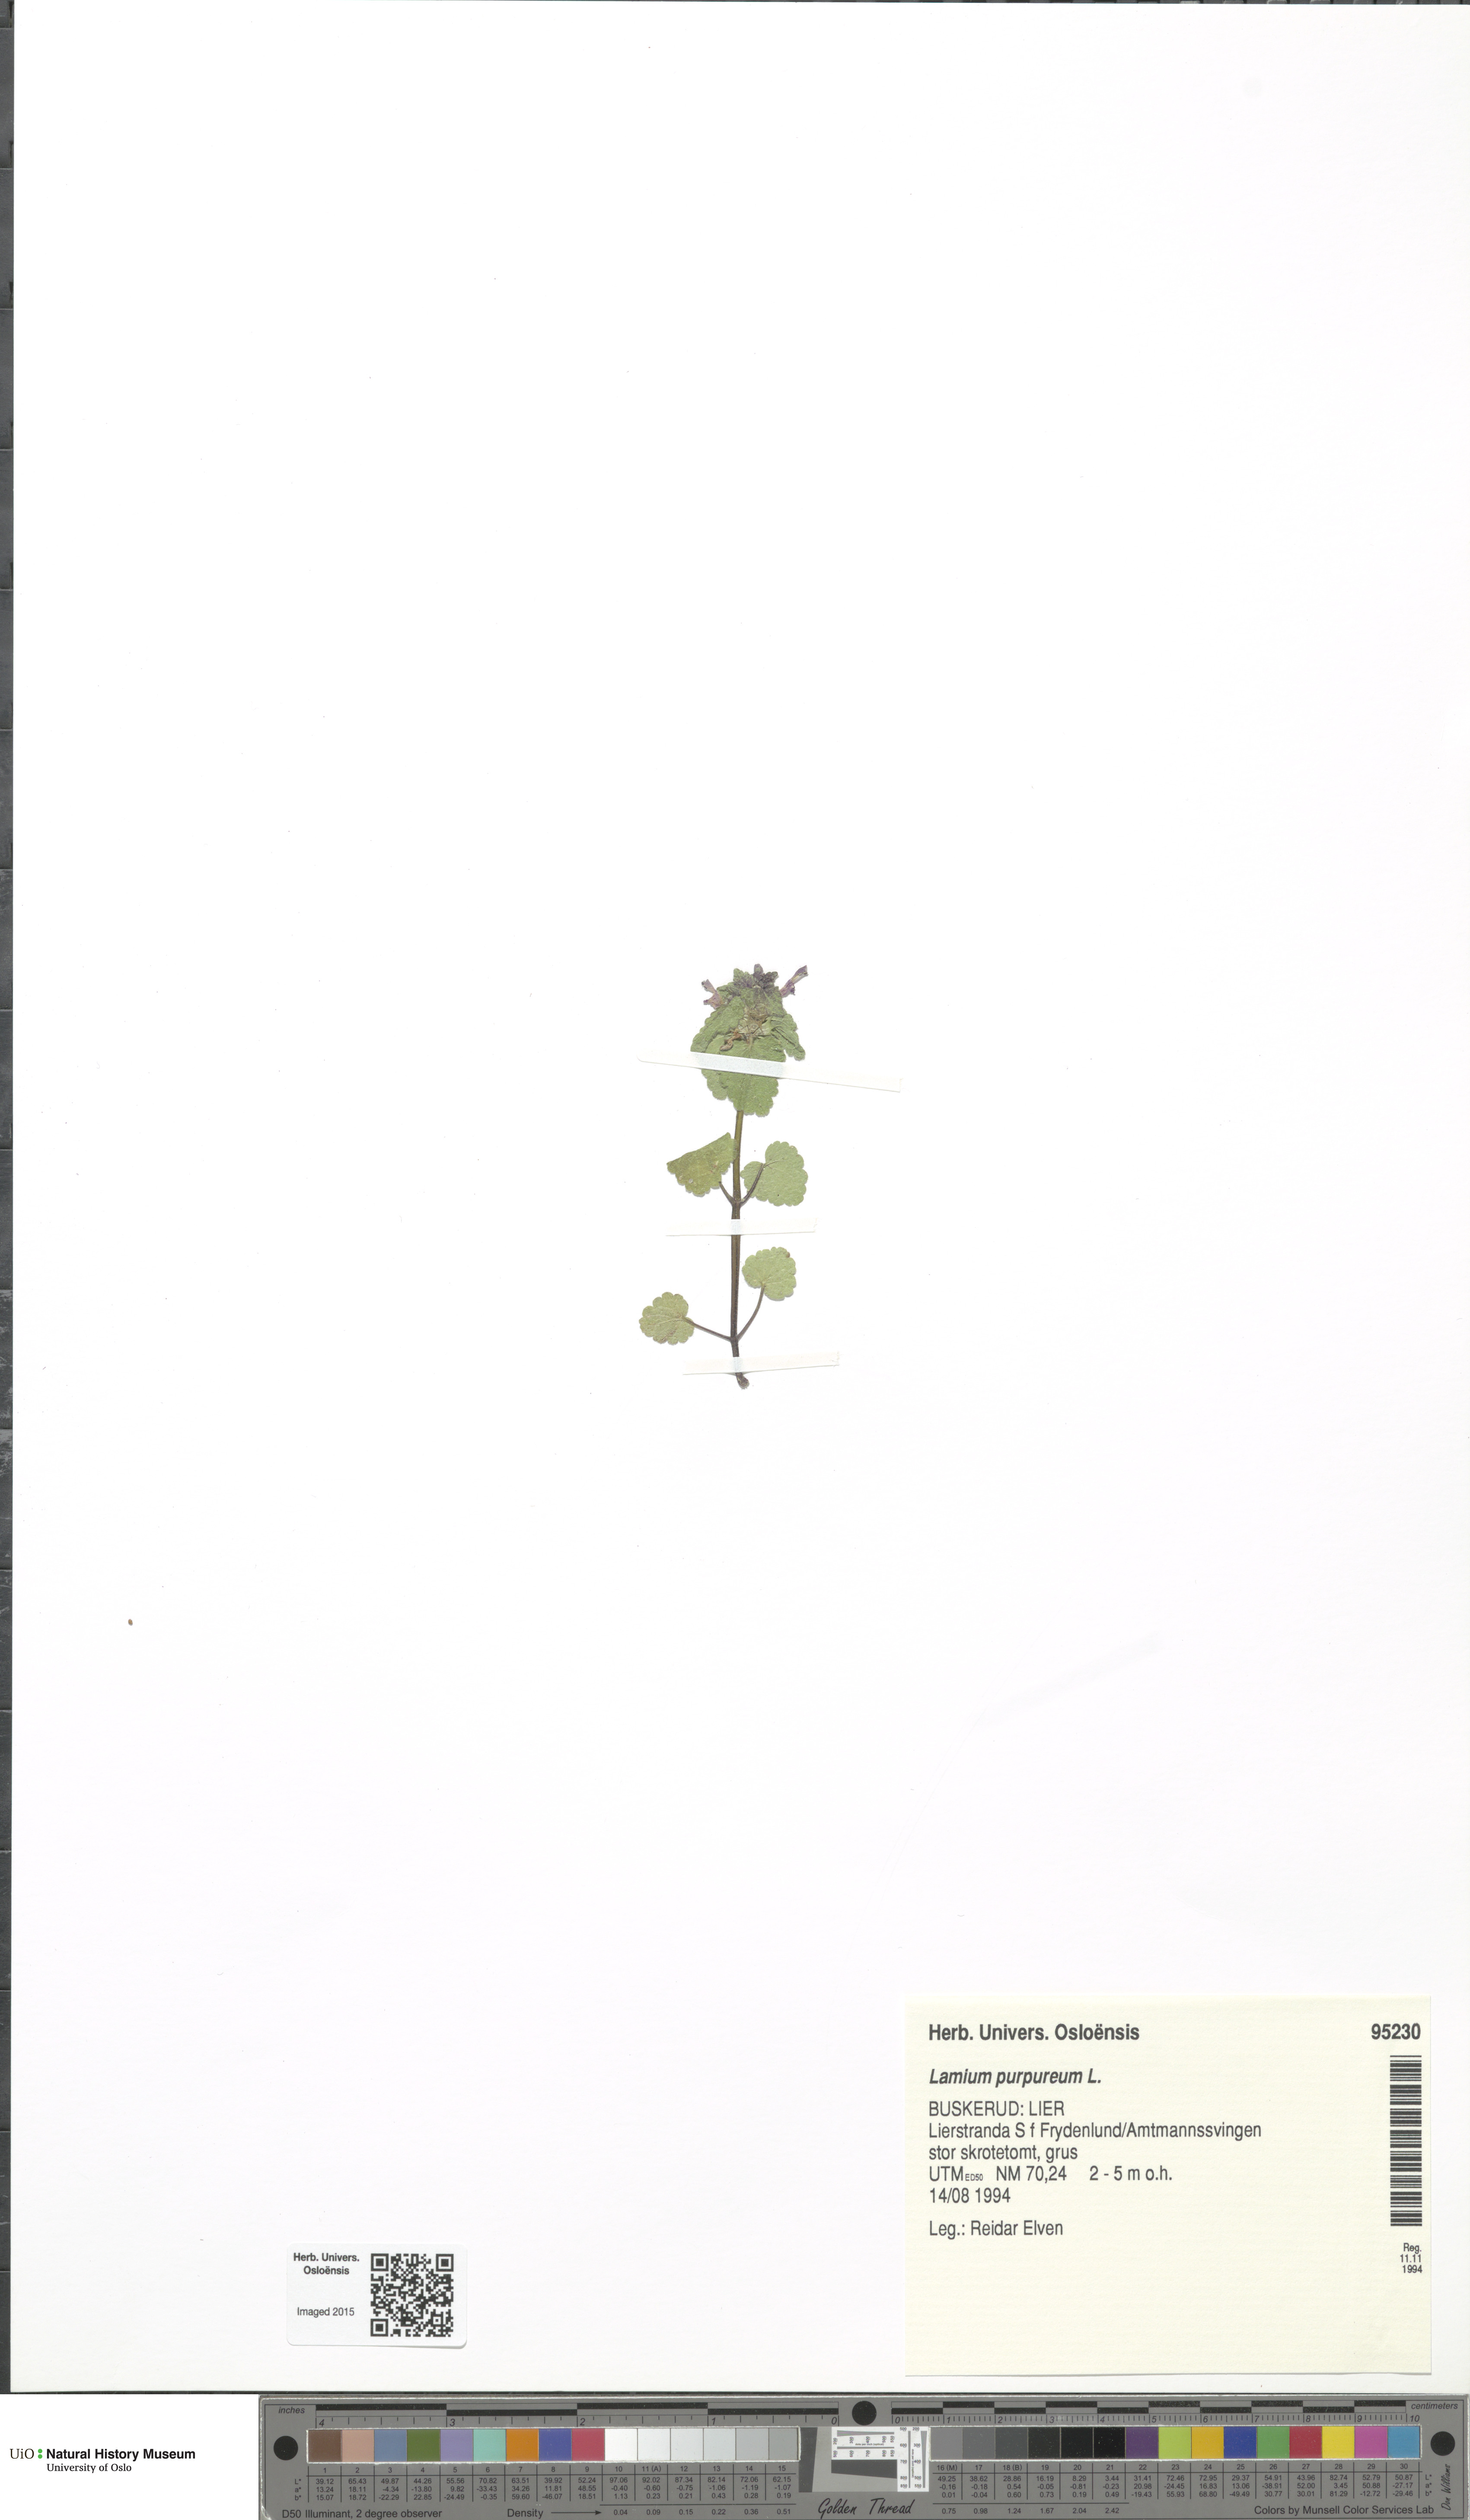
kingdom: Plantae
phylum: Tracheophyta
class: Magnoliopsida
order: Lamiales
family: Lamiaceae
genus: Lamium
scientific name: Lamium purpureum
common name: Red dead-nettle
